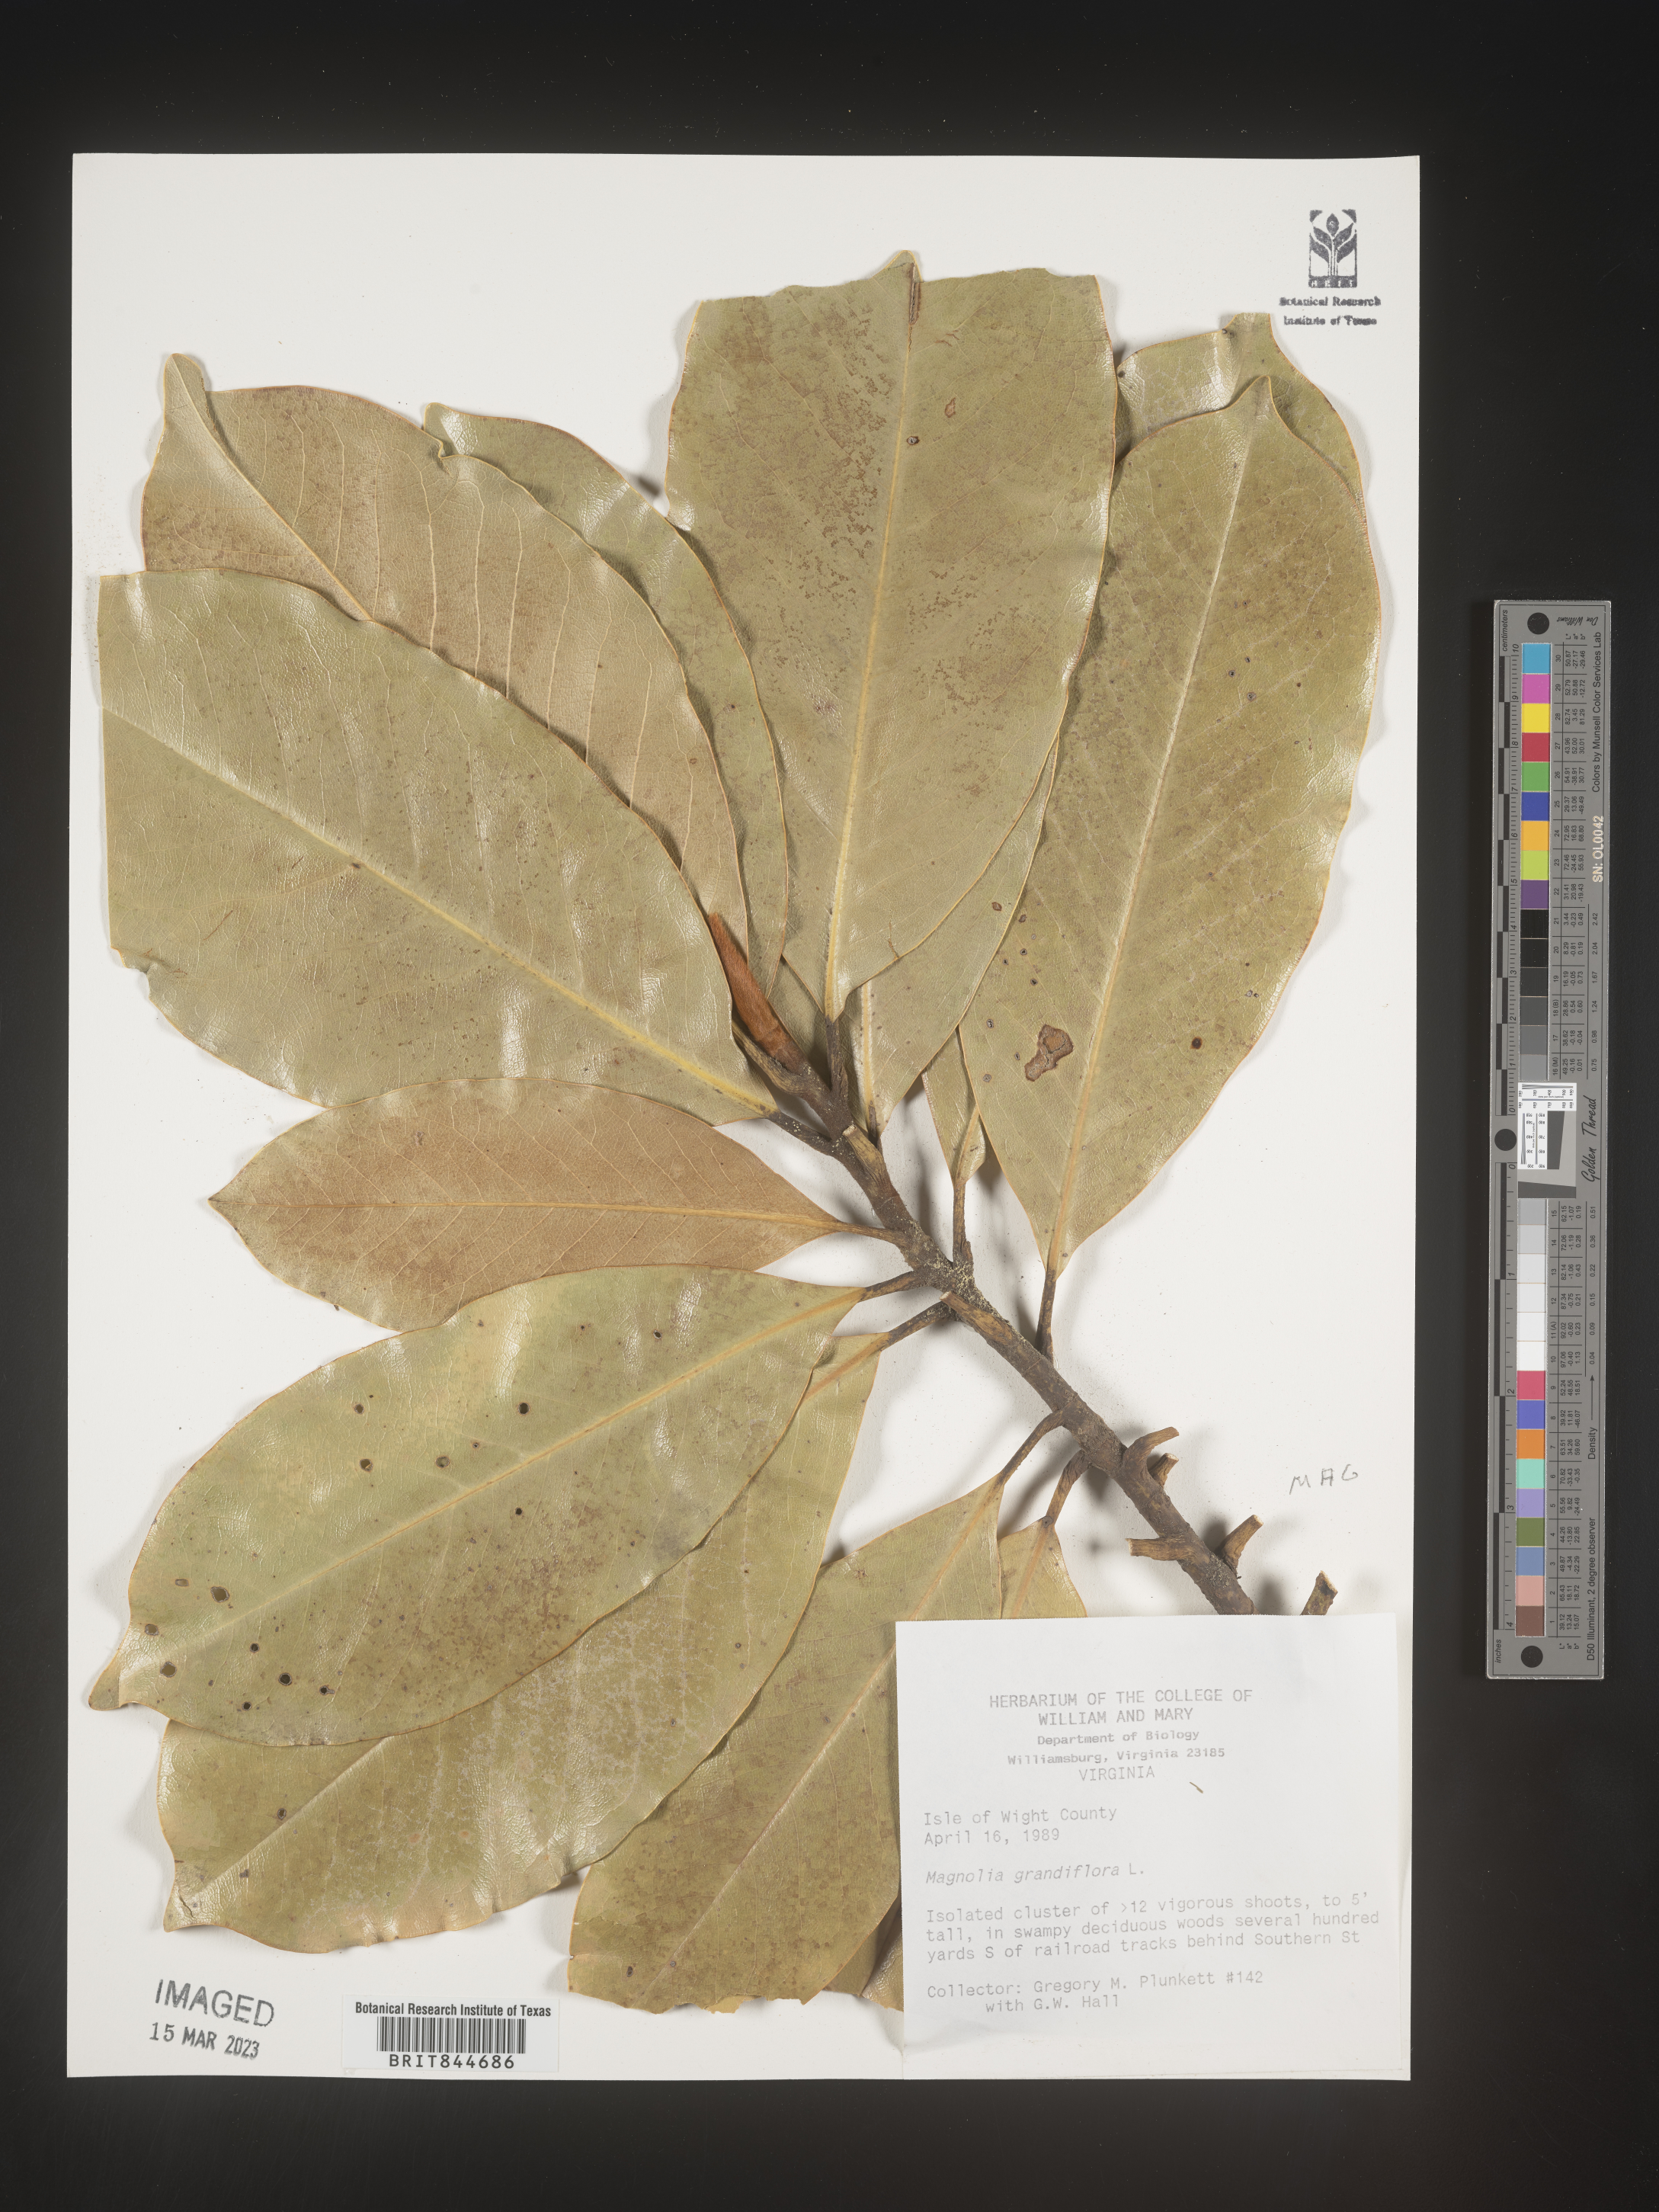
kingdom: Plantae
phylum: Tracheophyta
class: Magnoliopsida
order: Magnoliales
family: Magnoliaceae
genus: Magnolia
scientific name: Magnolia grandiflora
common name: Southern magnolia
